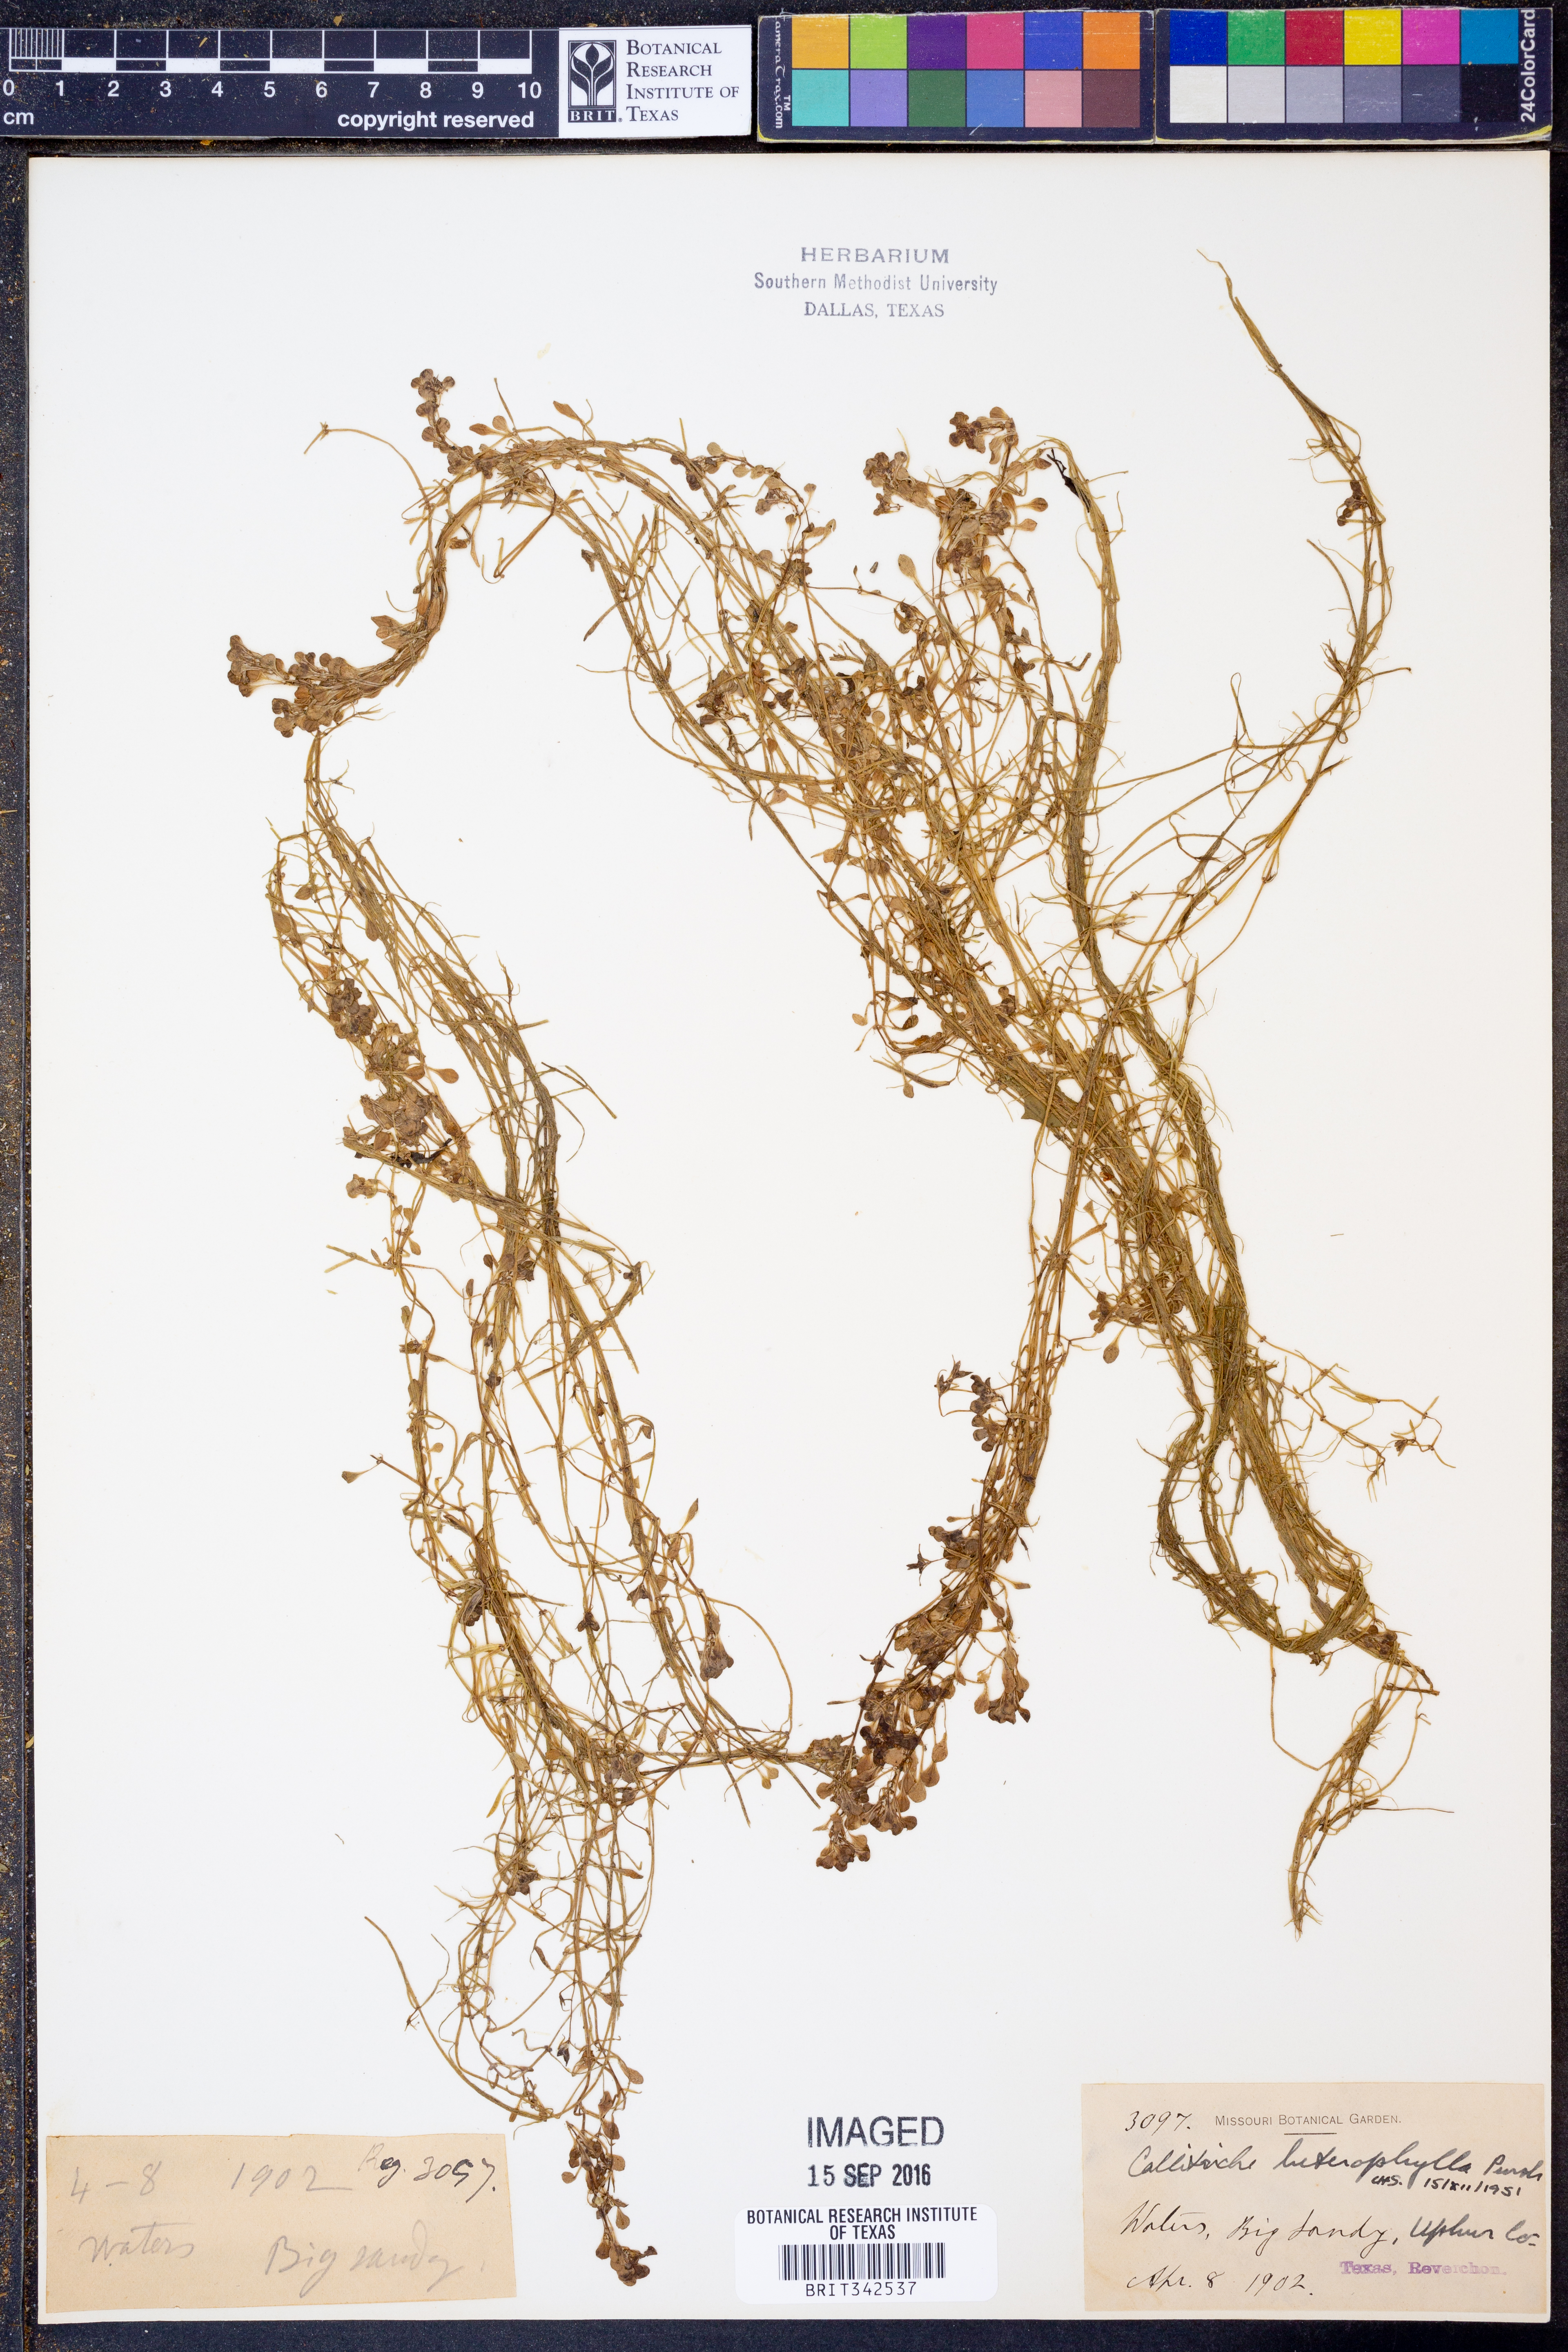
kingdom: Plantae
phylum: Tracheophyta
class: Magnoliopsida
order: Lamiales
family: Plantaginaceae
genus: Callitriche
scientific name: Callitriche heterophylla
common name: Two-headed water-starwort
